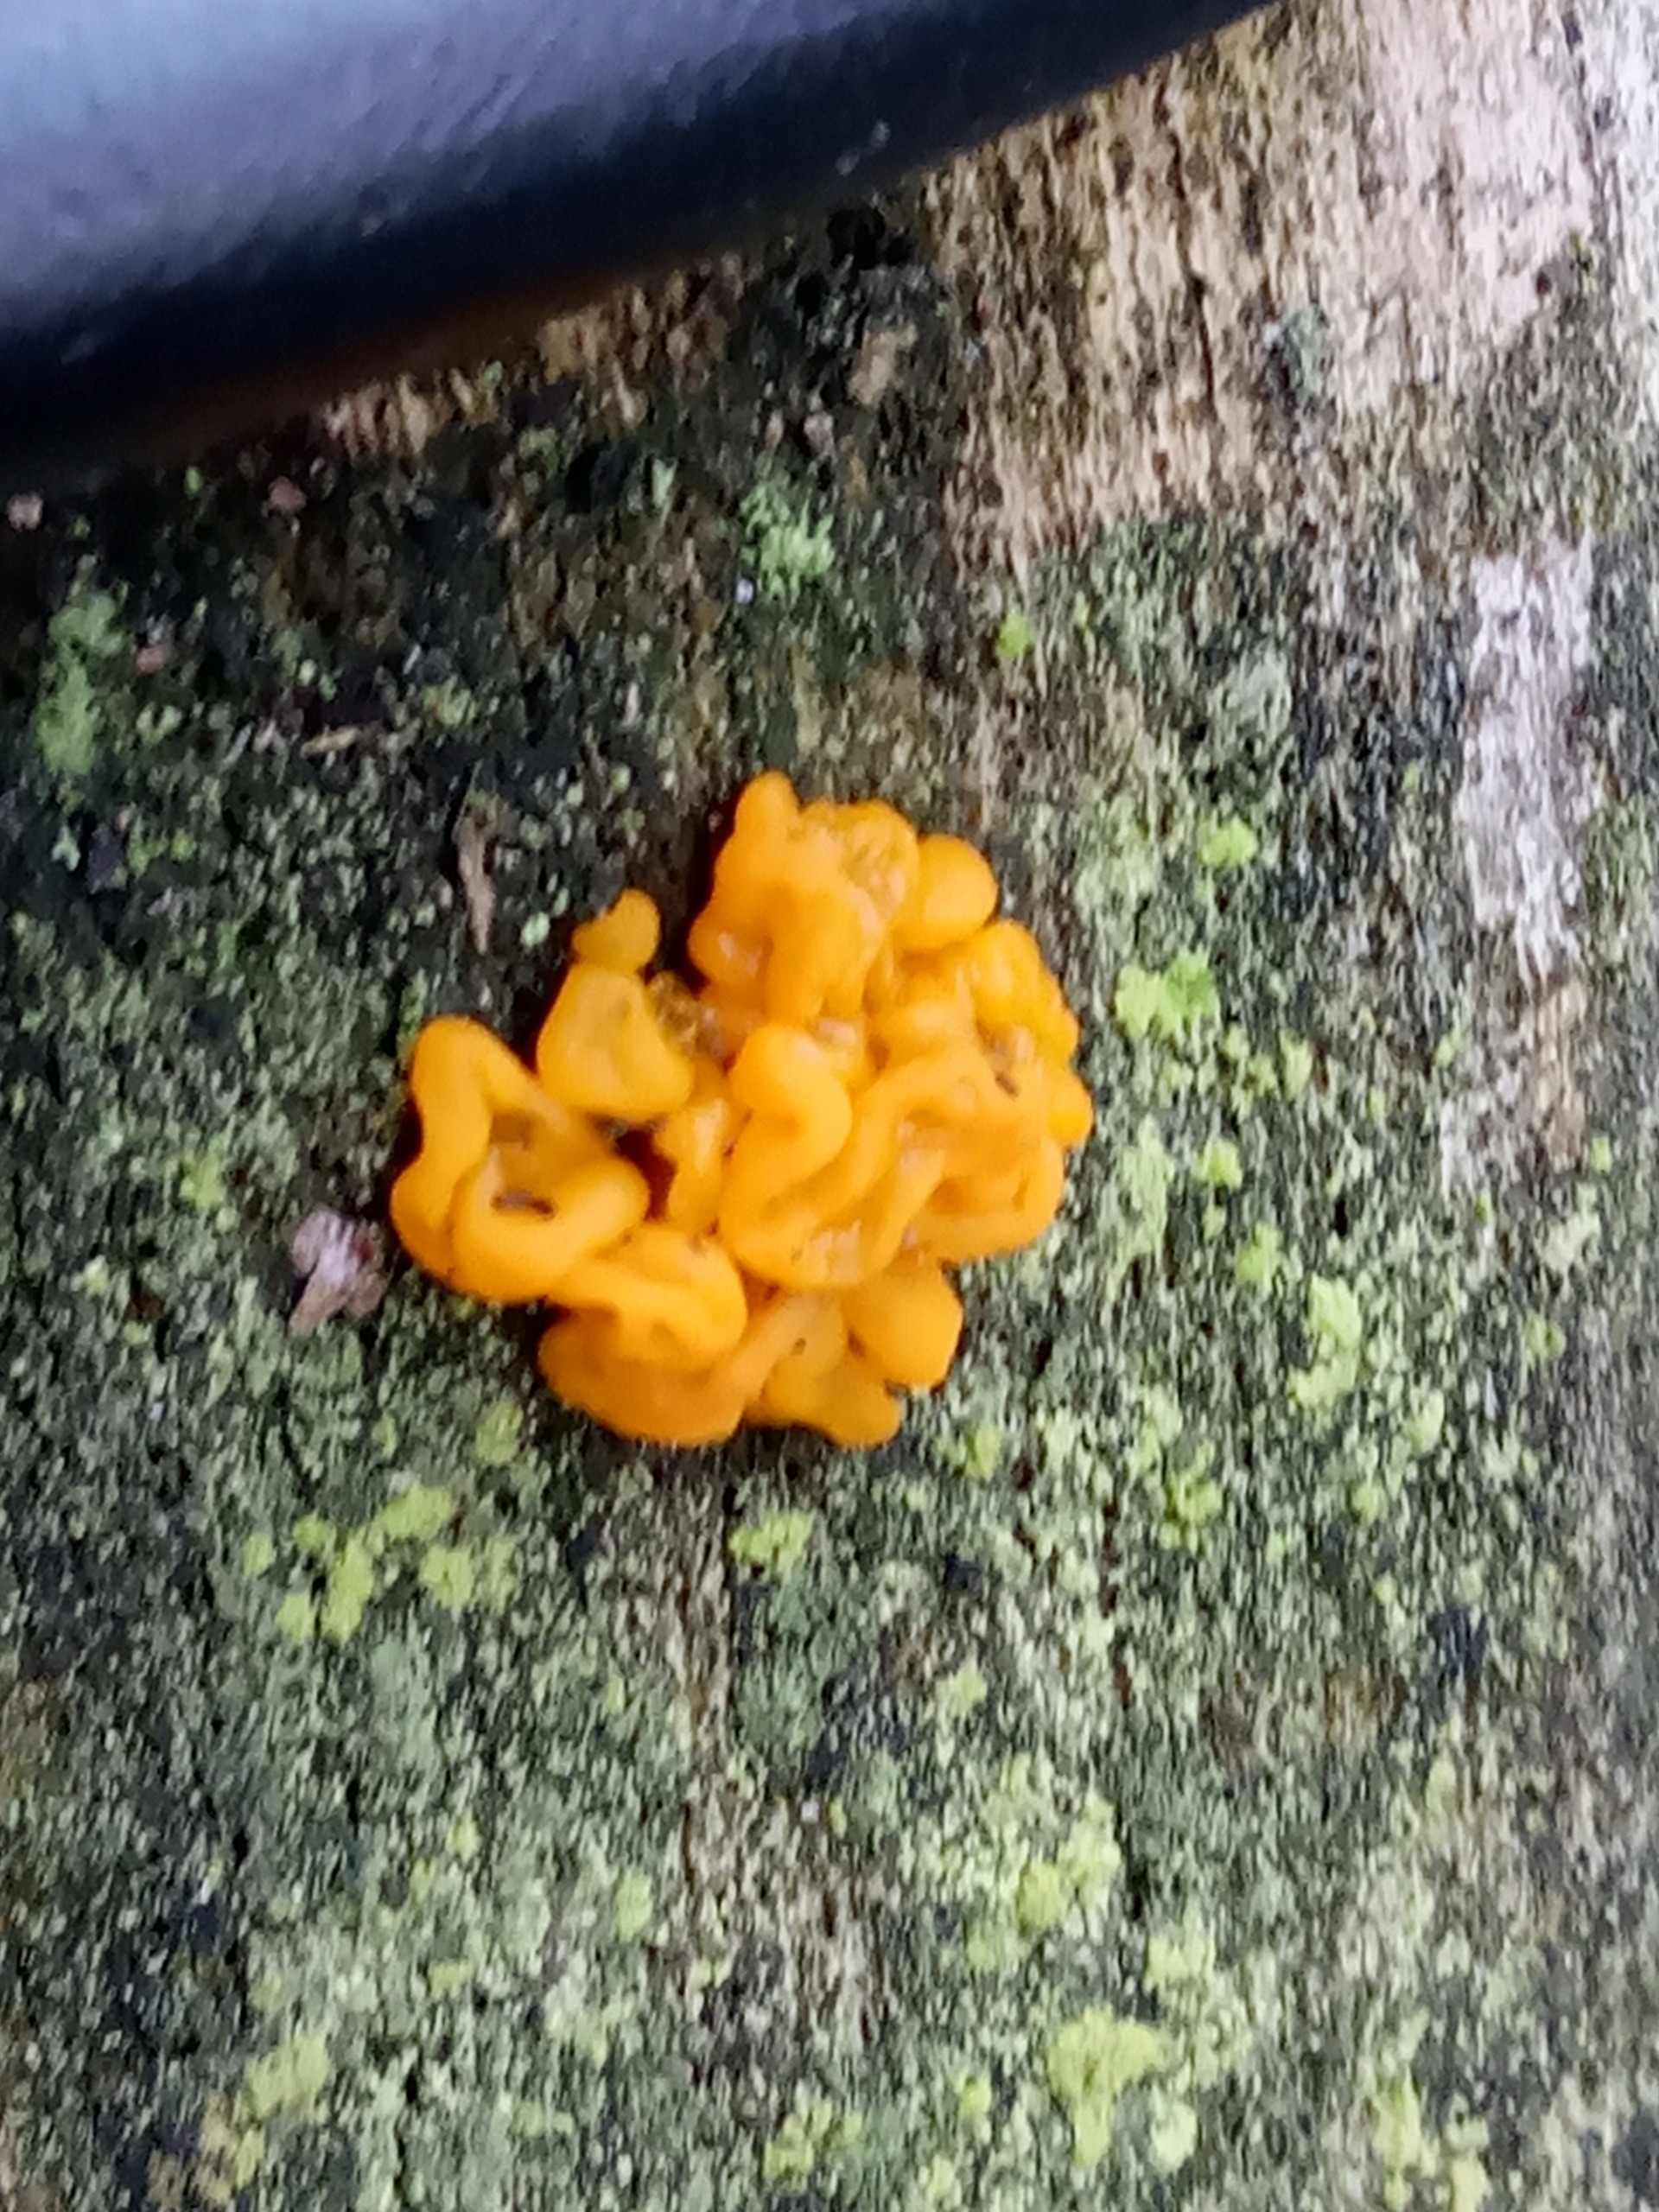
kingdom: Fungi
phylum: Basidiomycota
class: Tremellomycetes
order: Tremellales
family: Tremellaceae
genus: Tremella
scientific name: Tremella mesenterica
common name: Gul bævresvamp
